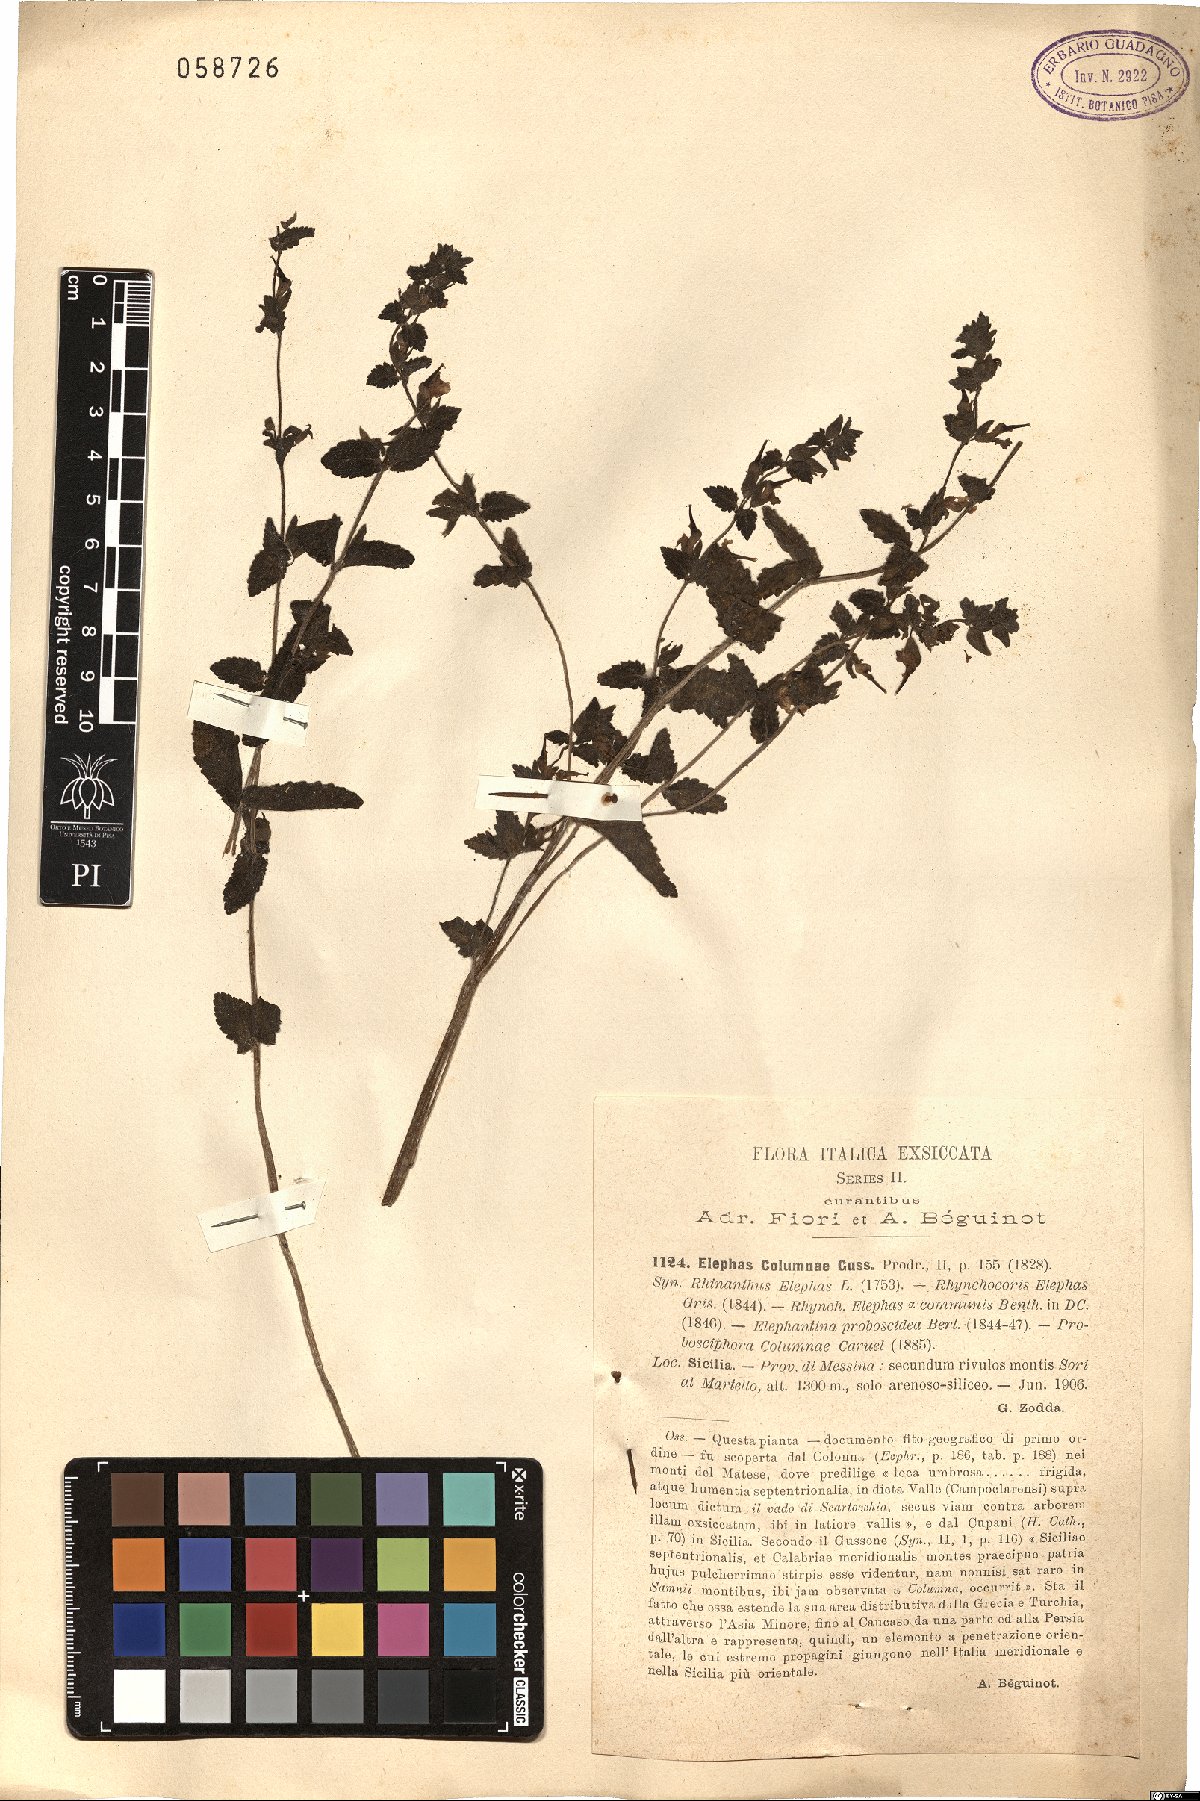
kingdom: Plantae
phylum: Tracheophyta
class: Magnoliopsida
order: Lamiales
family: Orobanchaceae
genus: Rhynchocorys
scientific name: Rhynchocorys elephas
